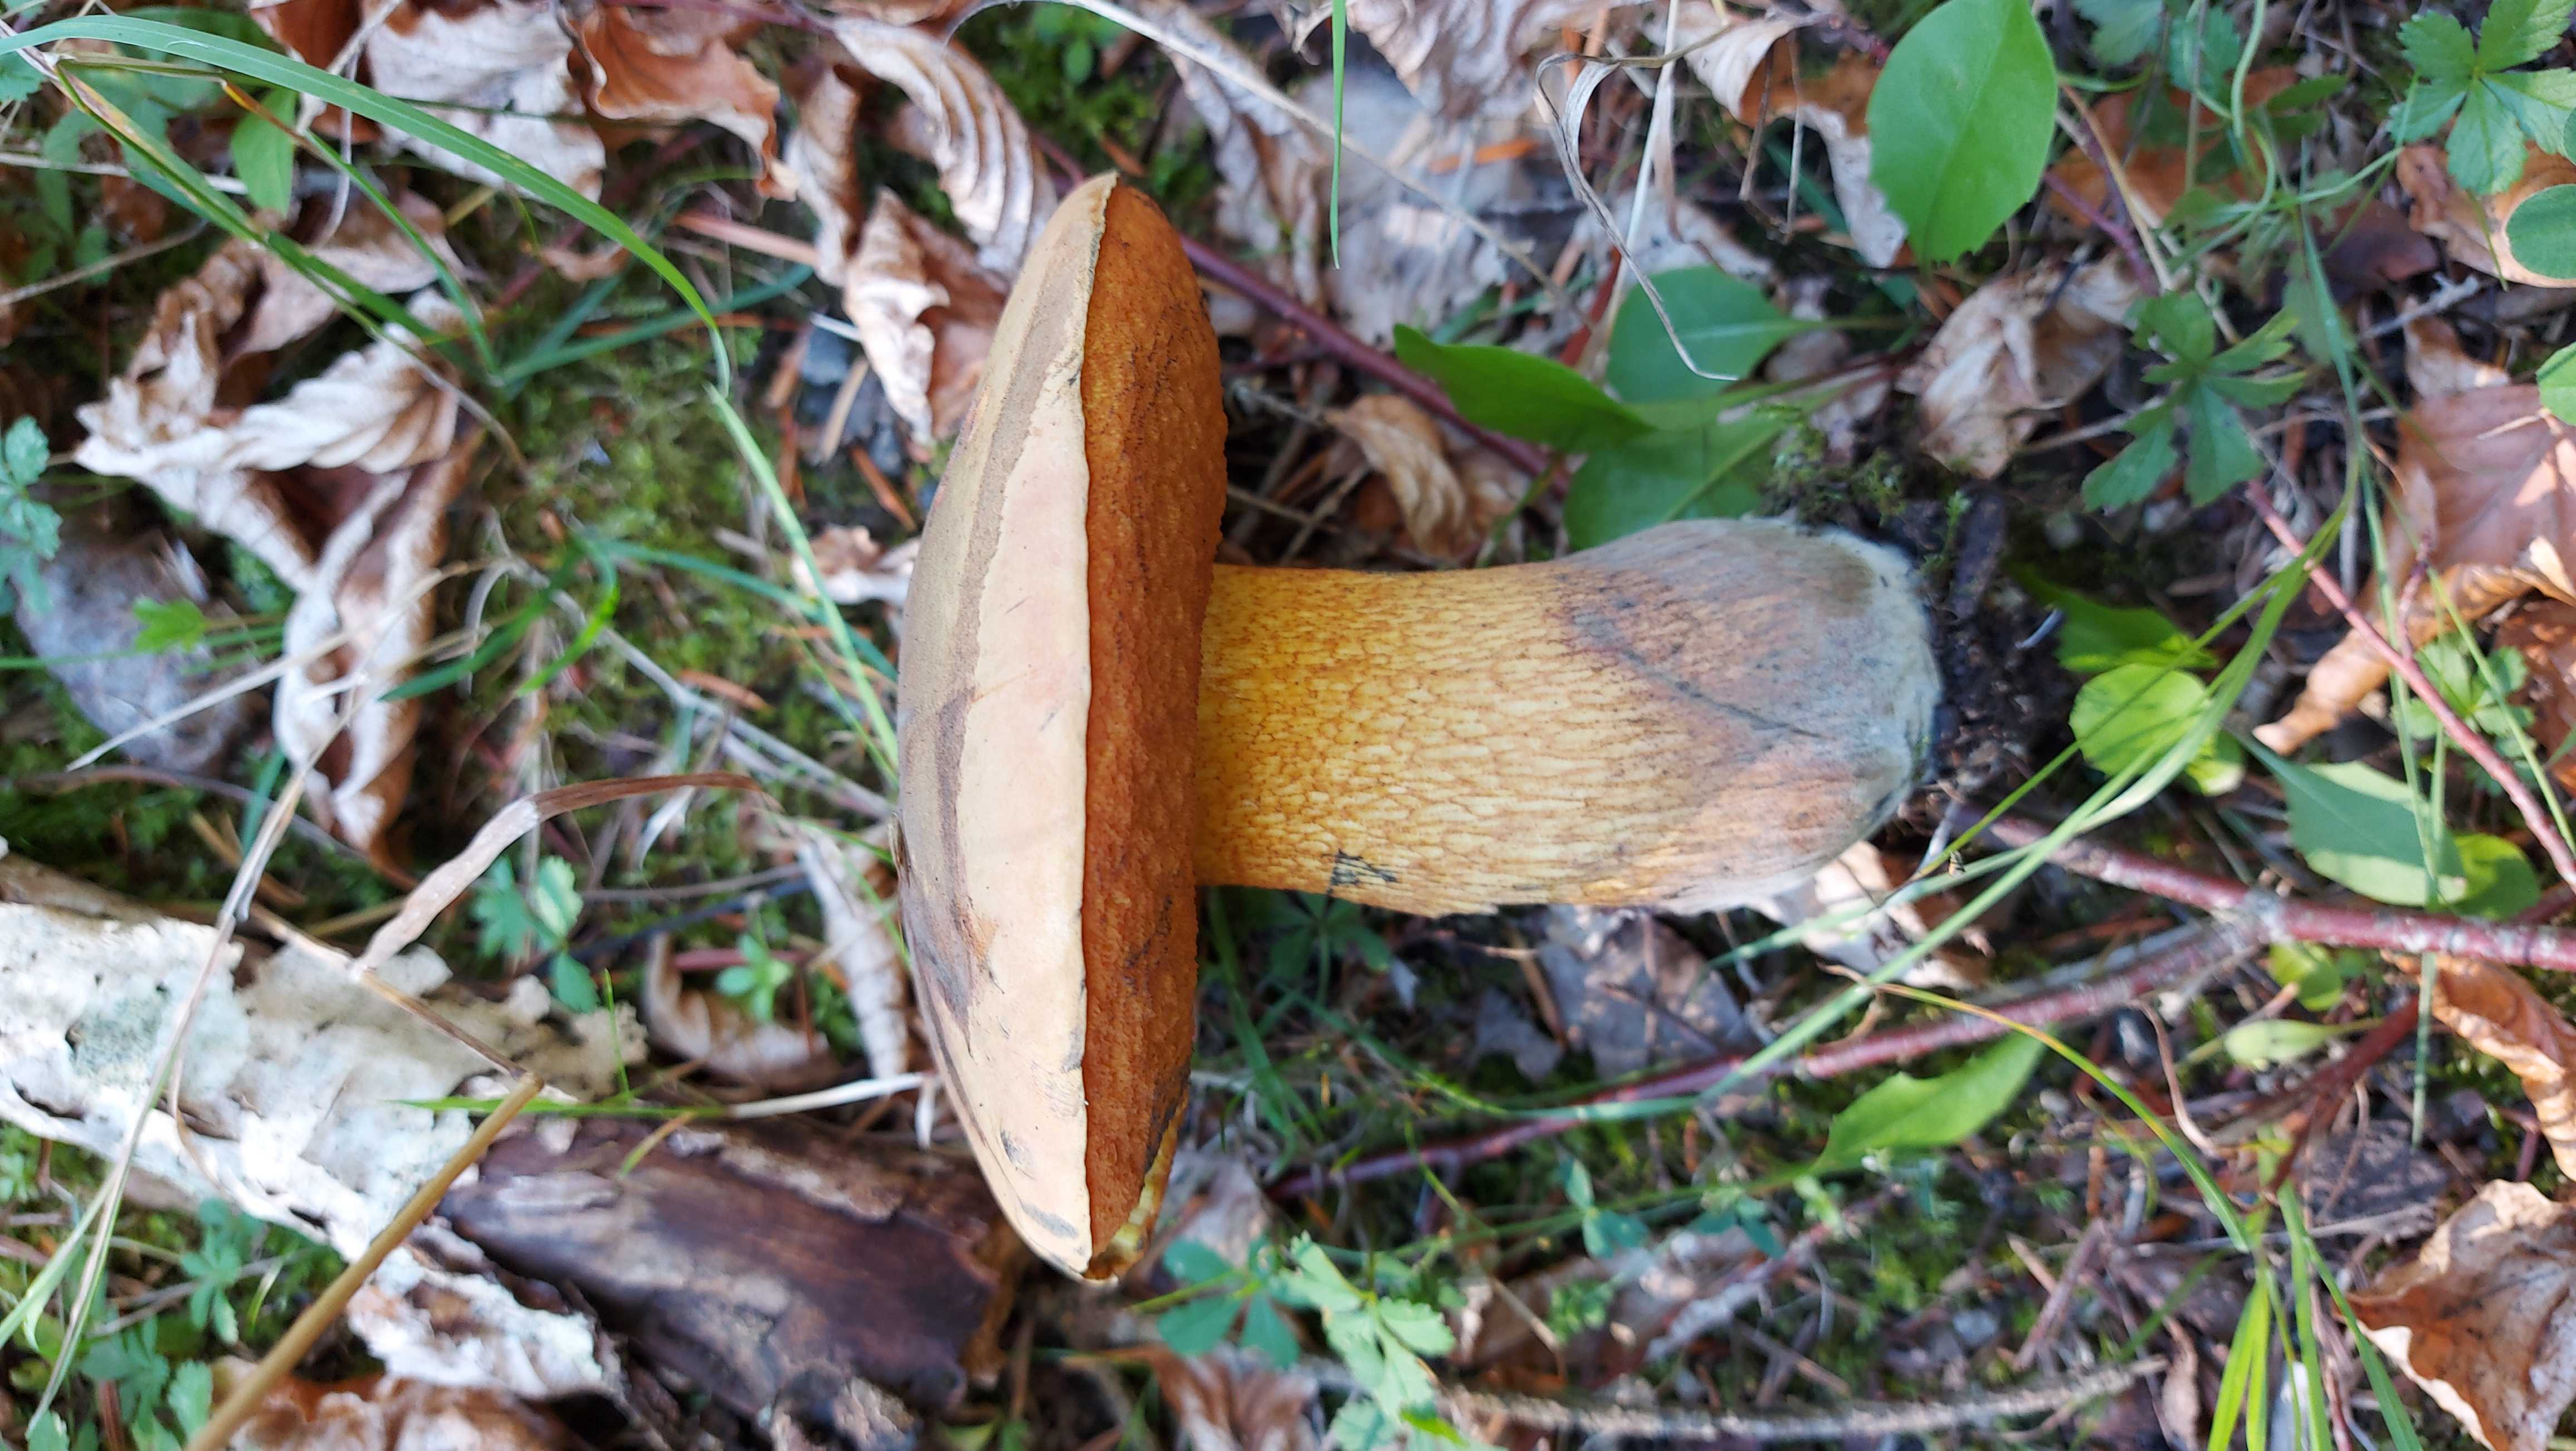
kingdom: Fungi
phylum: Basidiomycota
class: Agaricomycetes
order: Boletales
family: Boletaceae
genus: Suillellus
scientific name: Suillellus luridus
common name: netstokket indigorørhat
